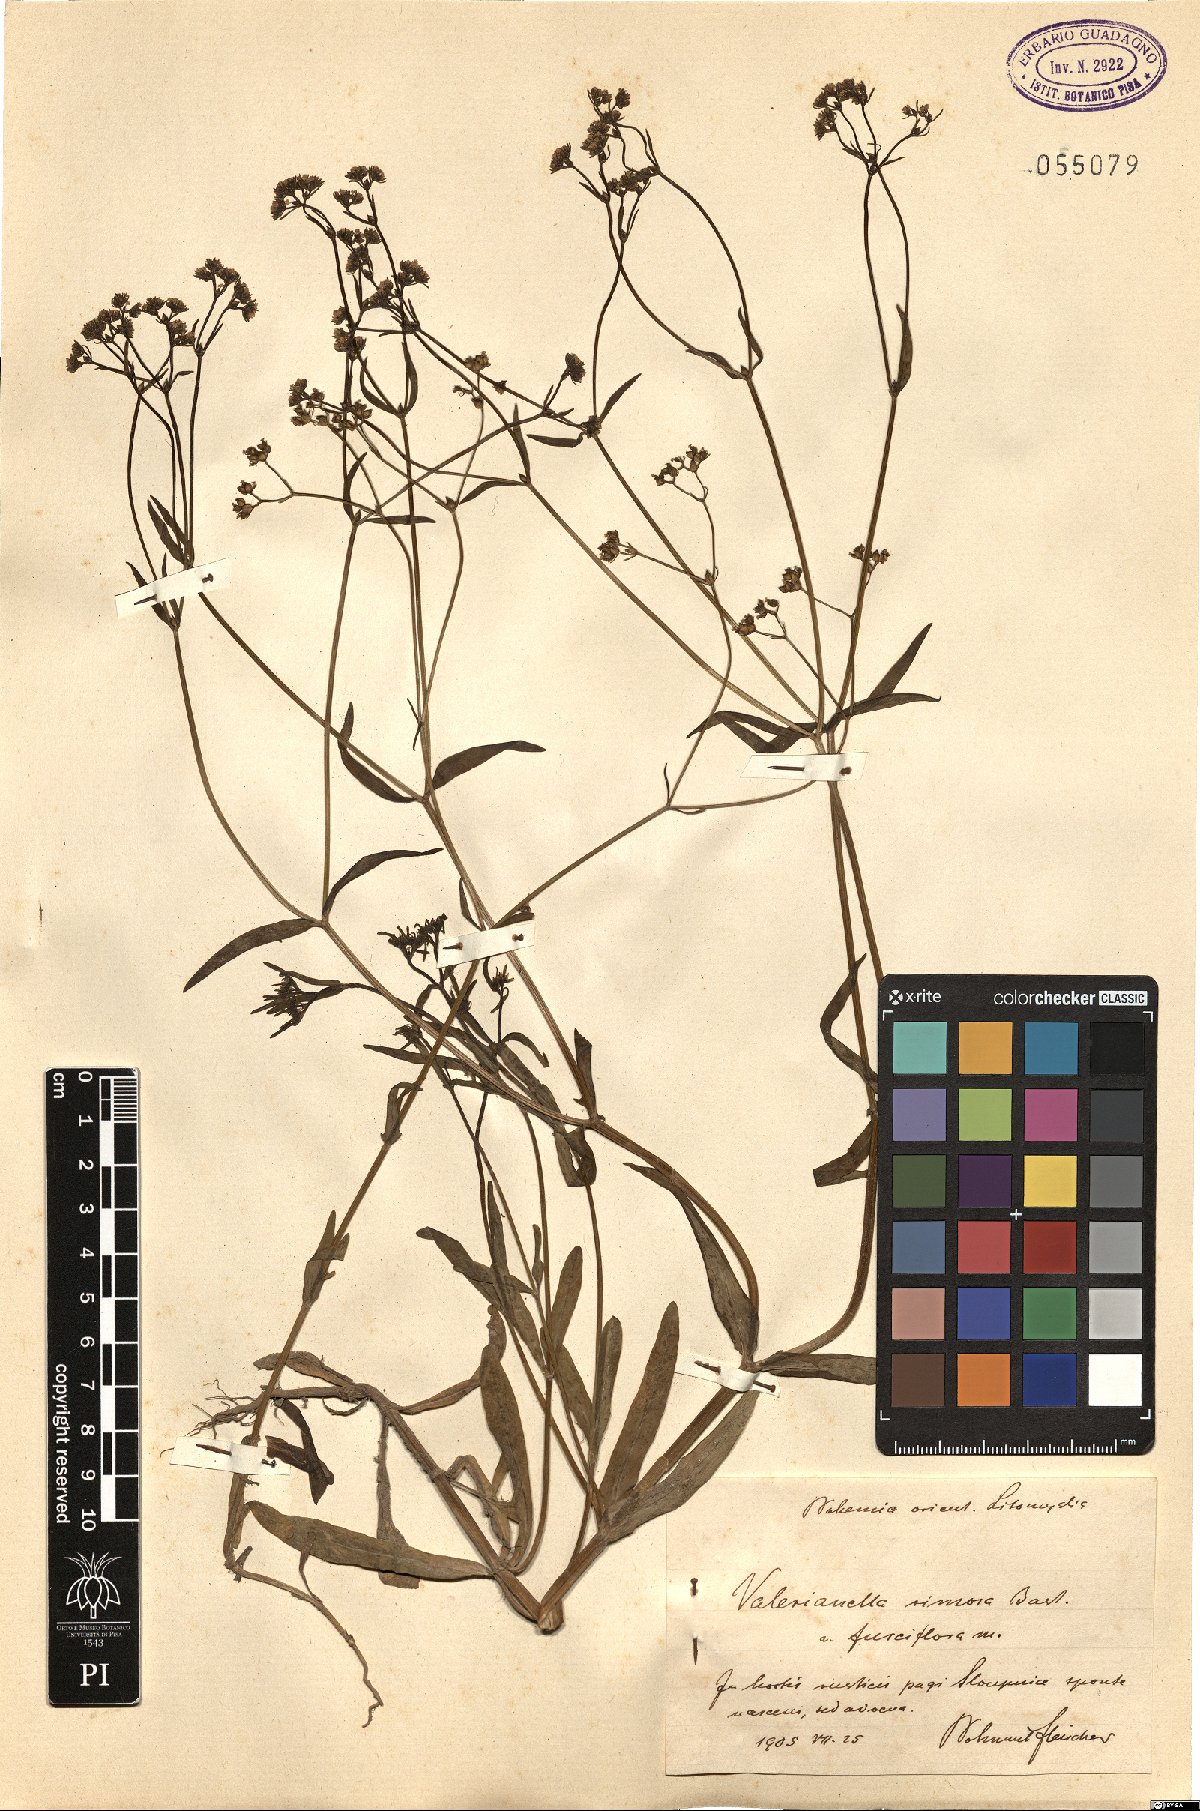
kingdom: Plantae
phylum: Tracheophyta
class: Magnoliopsida
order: Dipsacales
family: Caprifoliaceae
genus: Valerianella
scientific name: Valerianella rimosa
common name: Broad-fruited cornsalad
